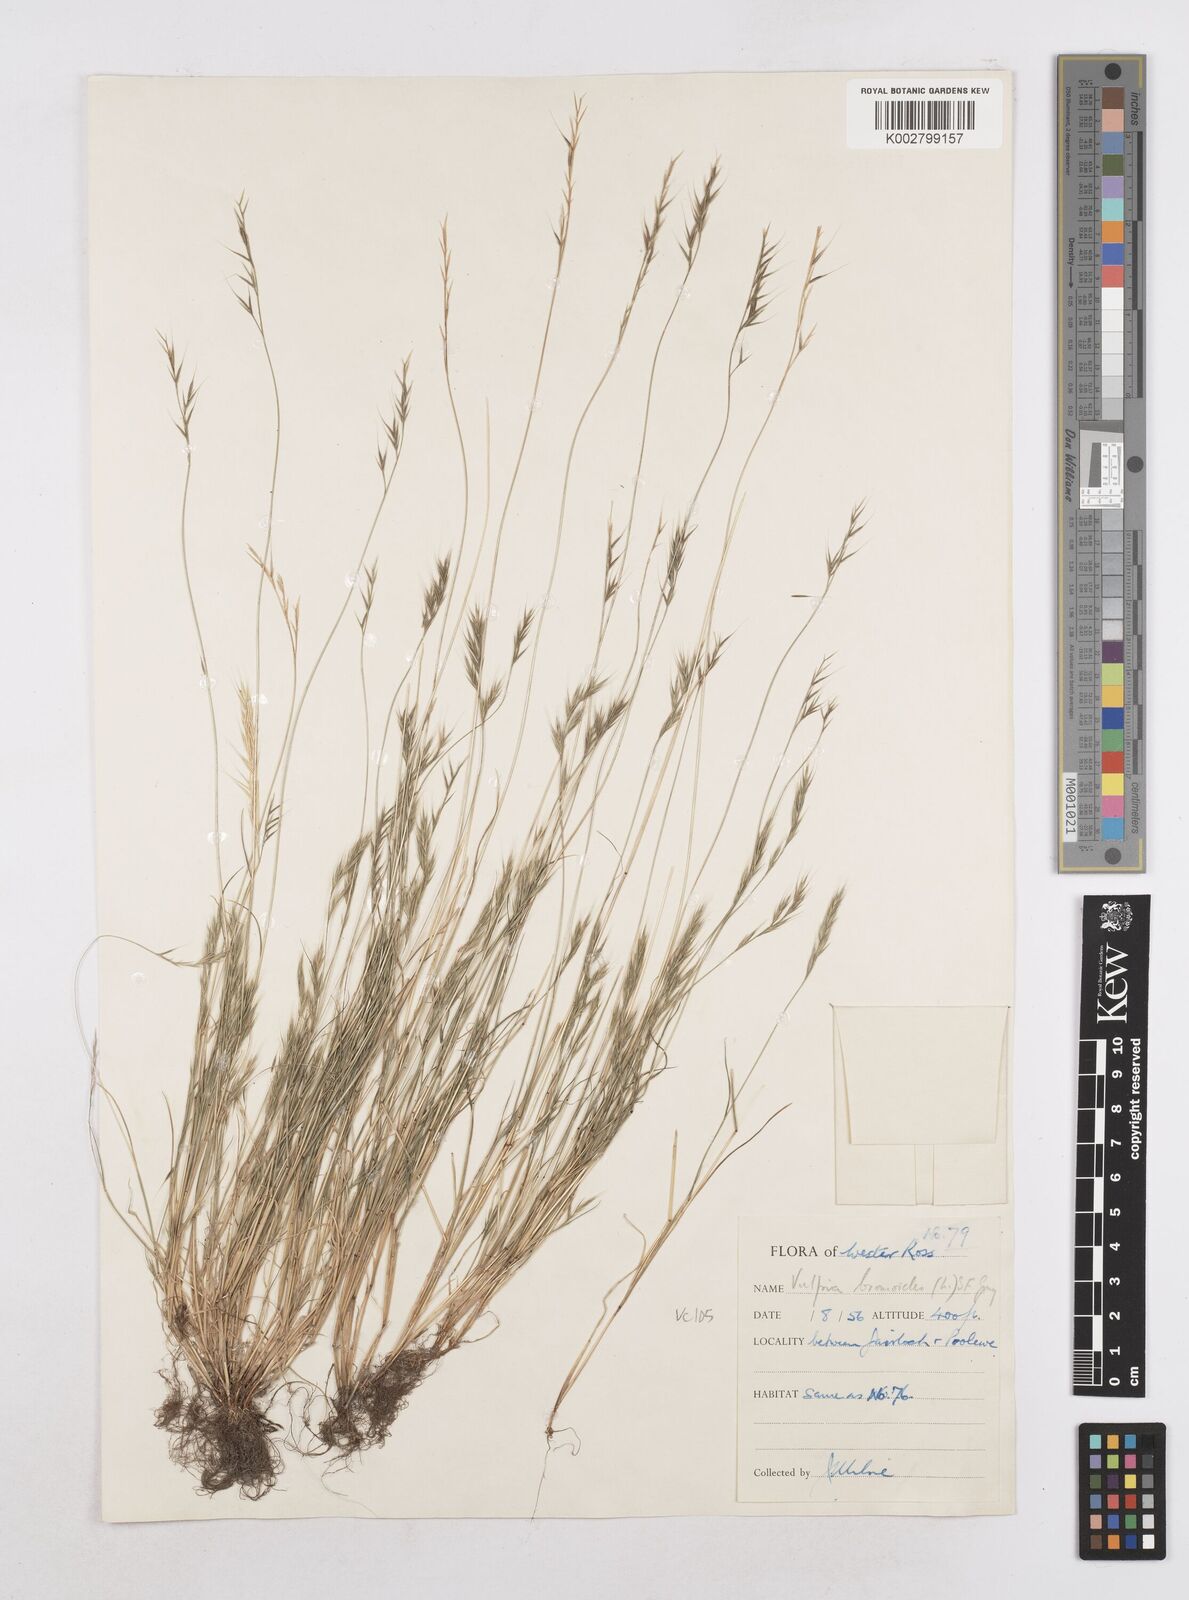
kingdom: Plantae
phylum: Tracheophyta
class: Liliopsida
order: Poales
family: Poaceae
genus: Festuca
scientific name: Festuca bromoides
